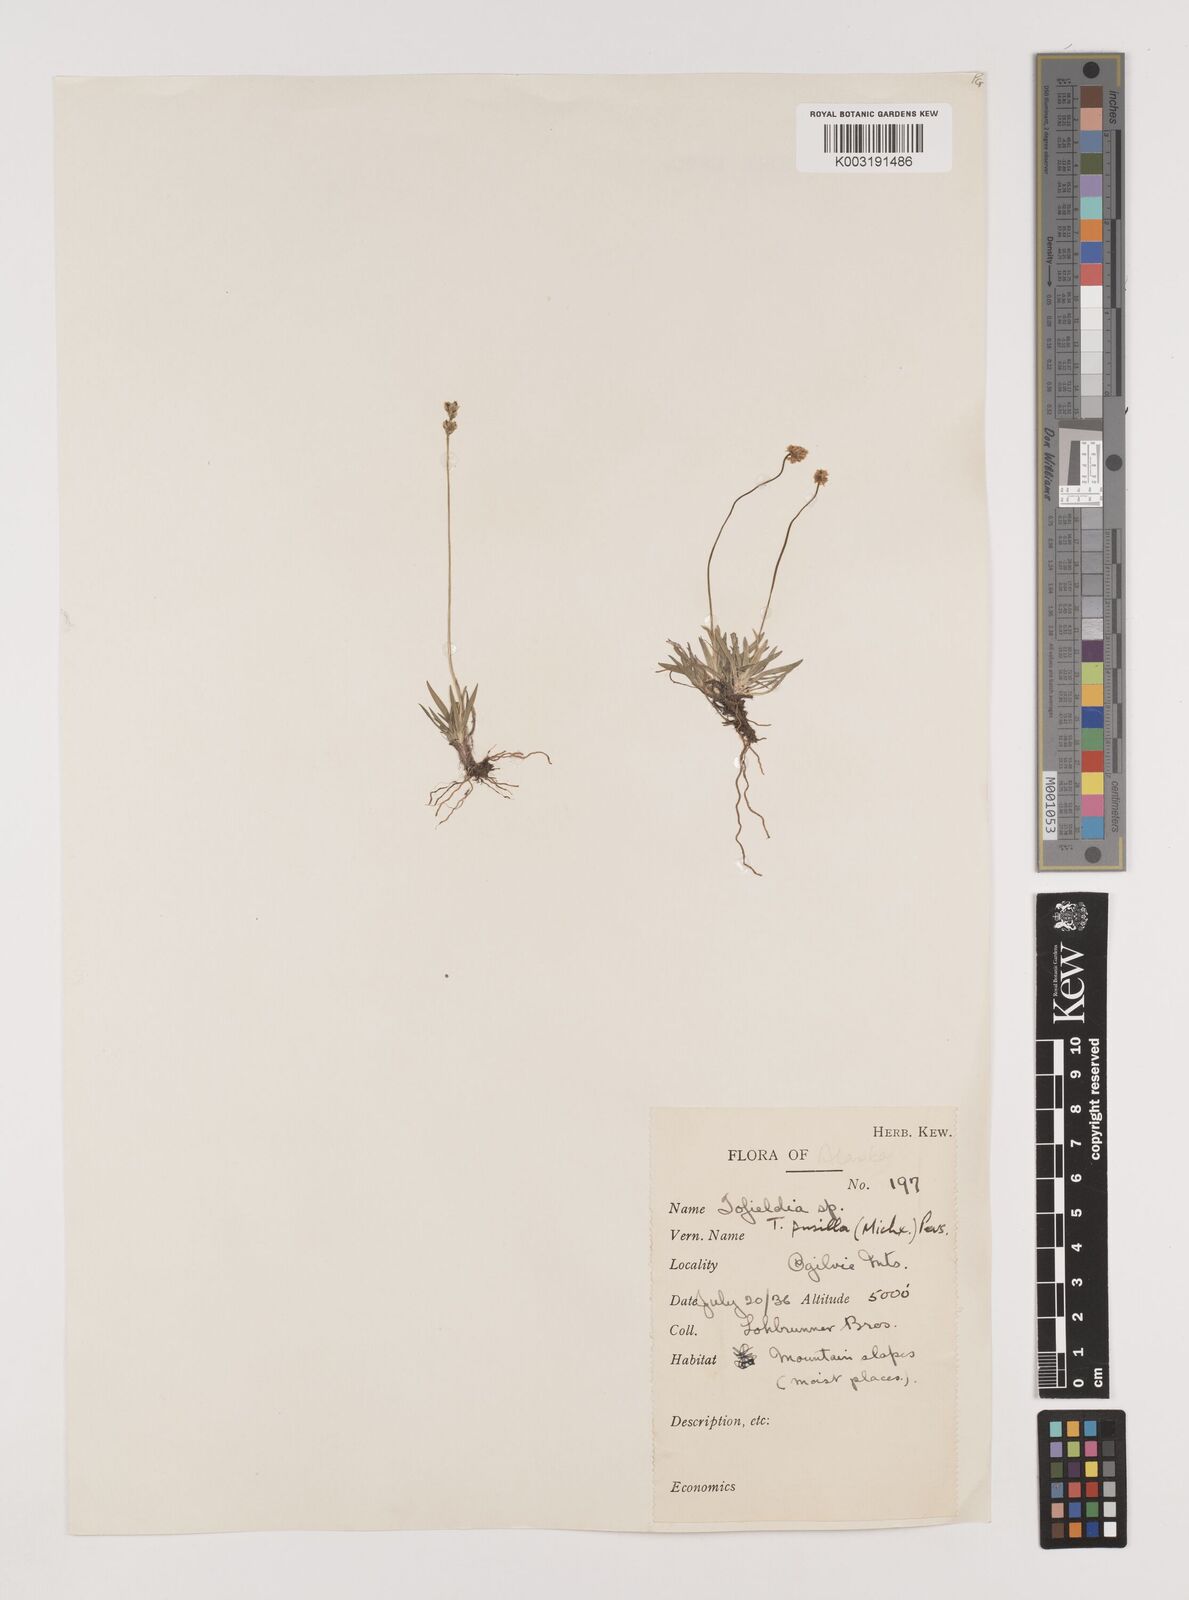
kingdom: Plantae
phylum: Tracheophyta
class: Liliopsida
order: Alismatales
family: Tofieldiaceae
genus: Tofieldia
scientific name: Tofieldia pusilla
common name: Scottish false asphodel
